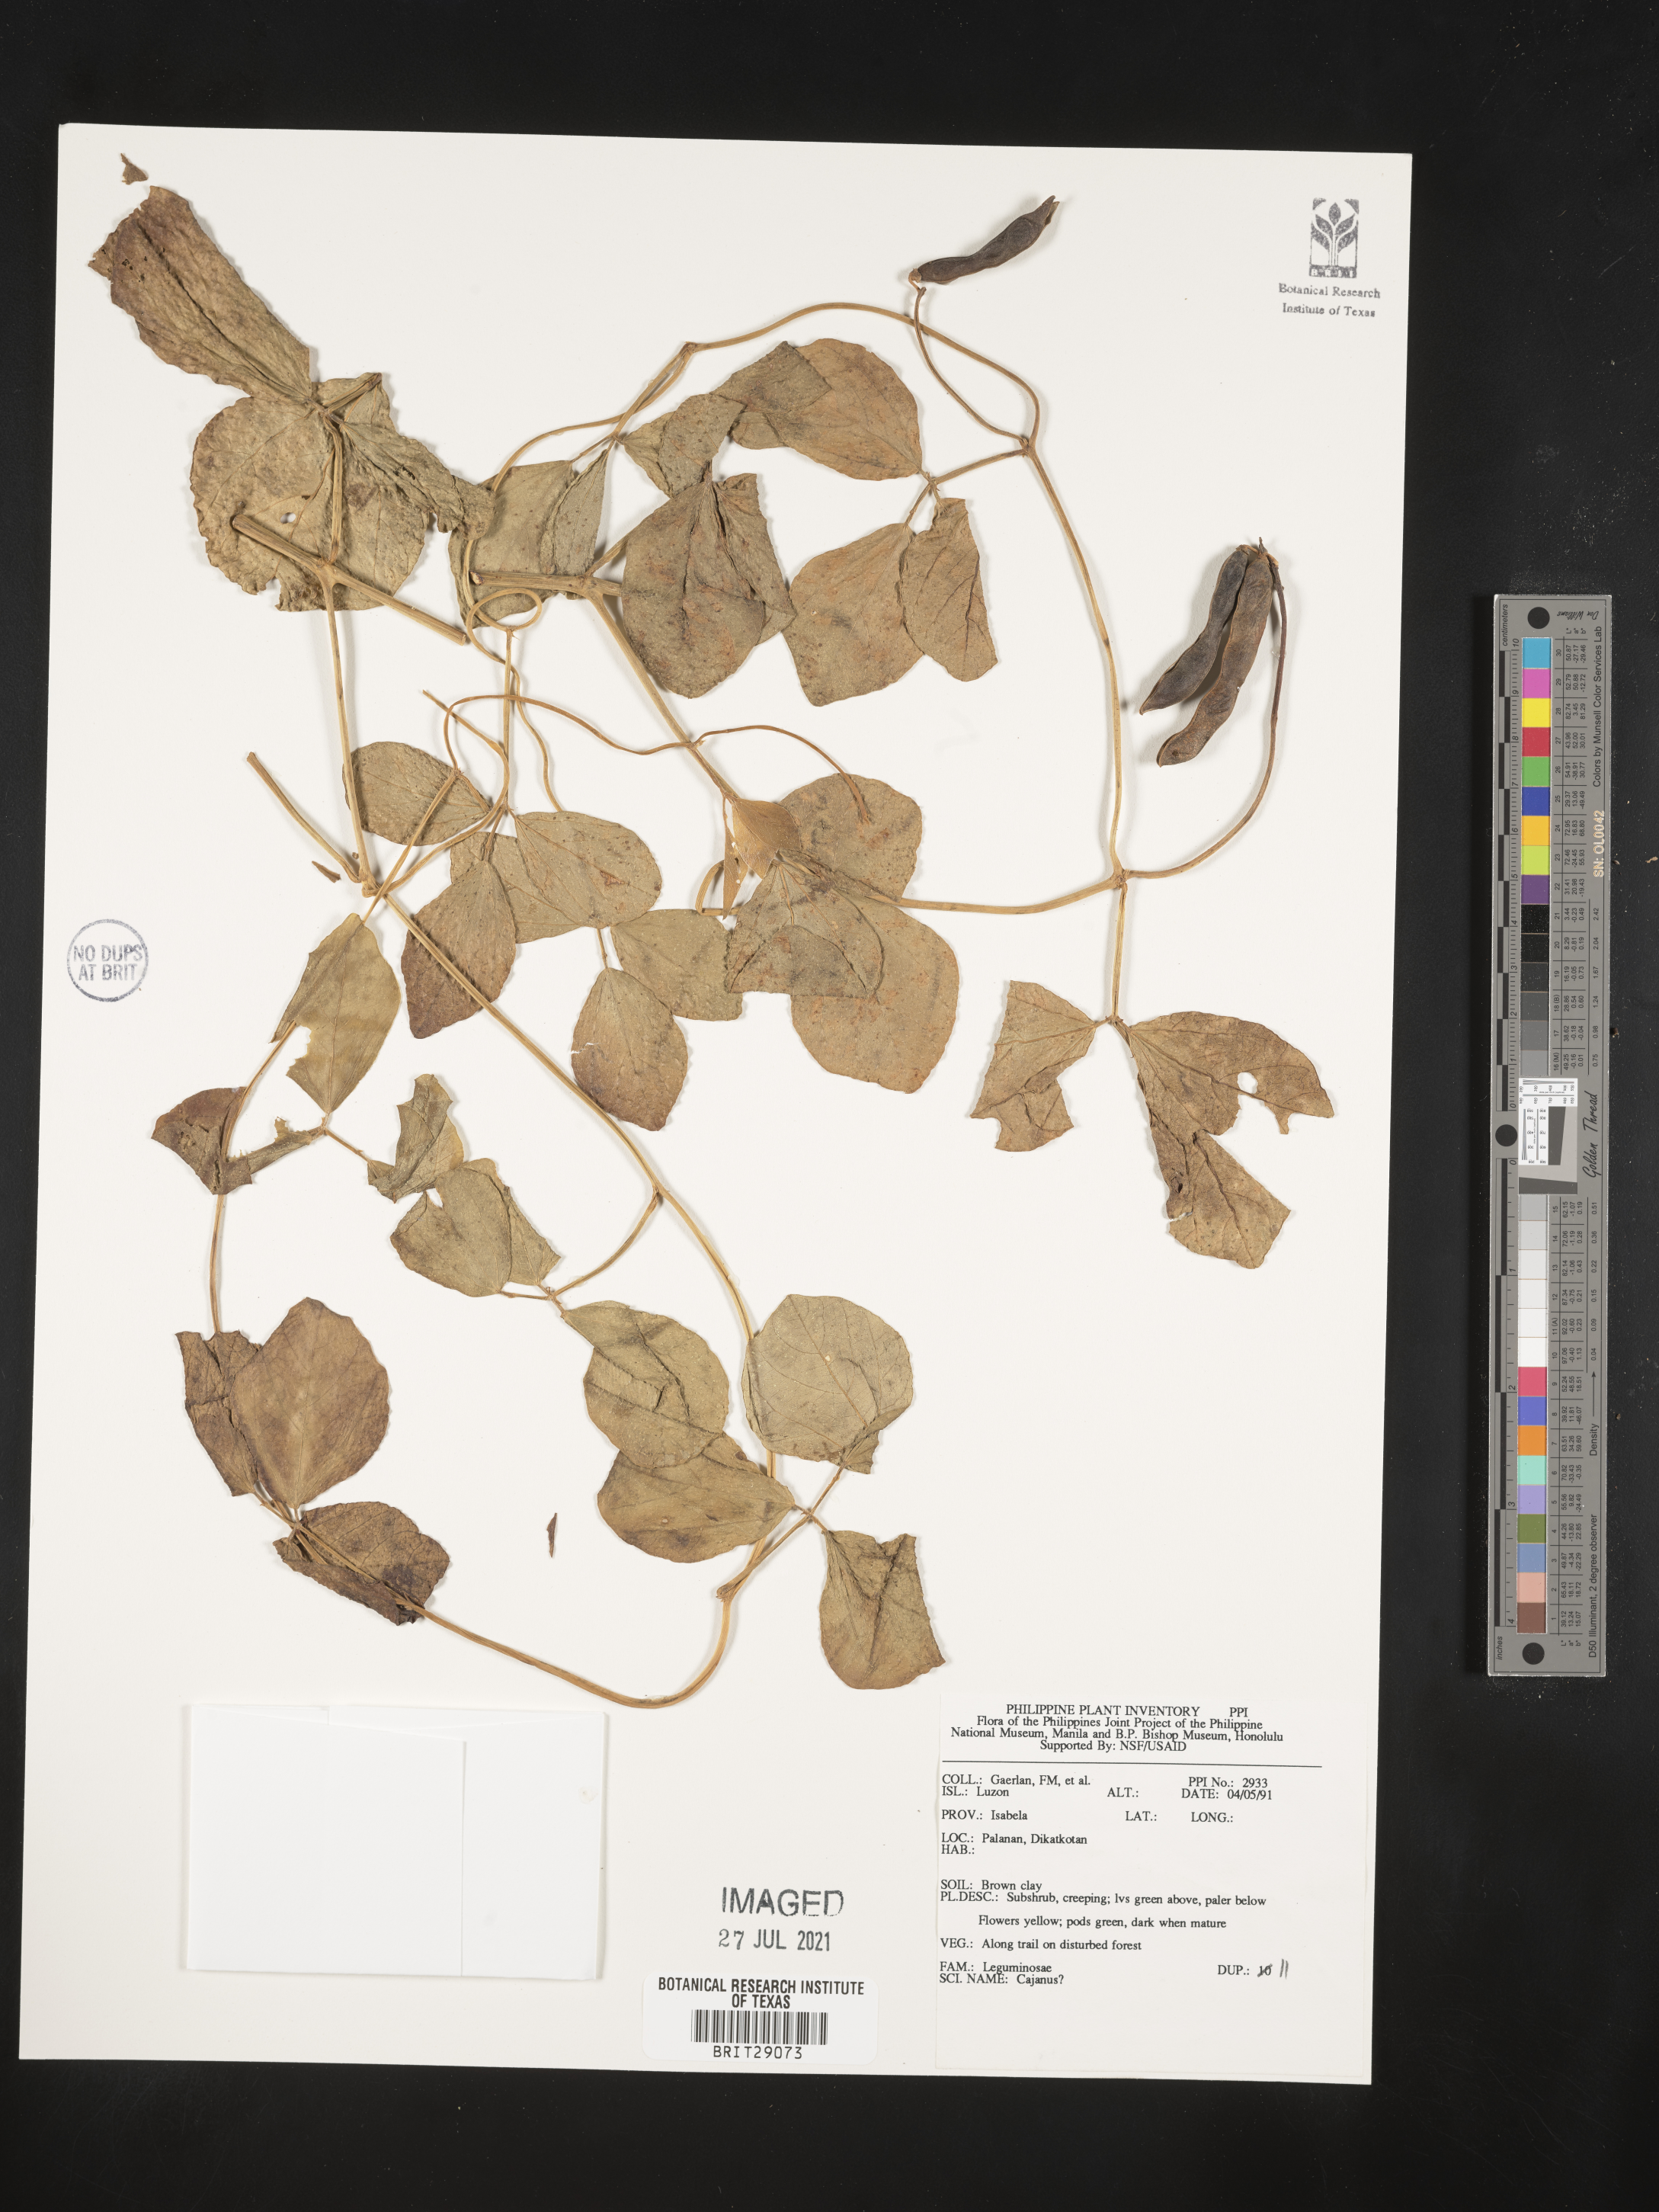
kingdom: Plantae
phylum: Tracheophyta
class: Magnoliopsida
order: Fabales
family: Fabaceae
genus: Cajanus
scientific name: Cajanus
